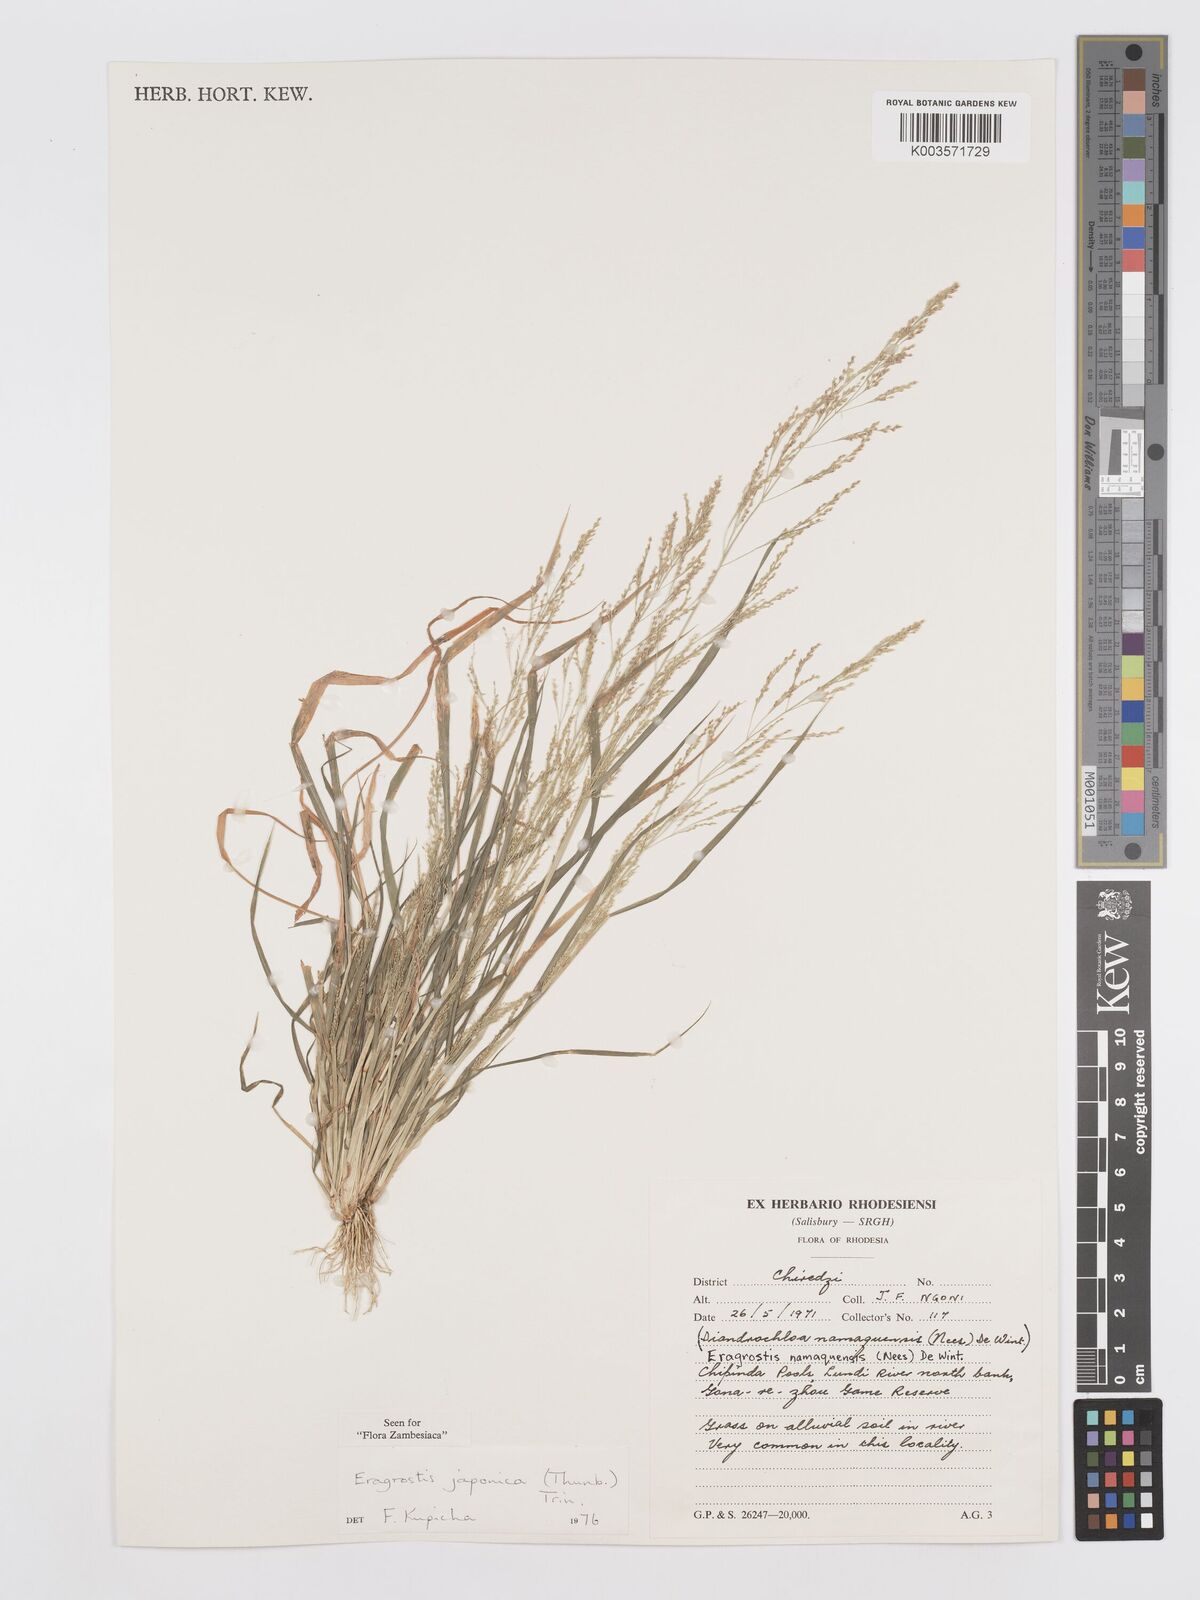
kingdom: Plantae
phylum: Tracheophyta
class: Liliopsida
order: Poales
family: Poaceae
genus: Eragrostis
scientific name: Eragrostis japonica
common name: Pond lovegrass
